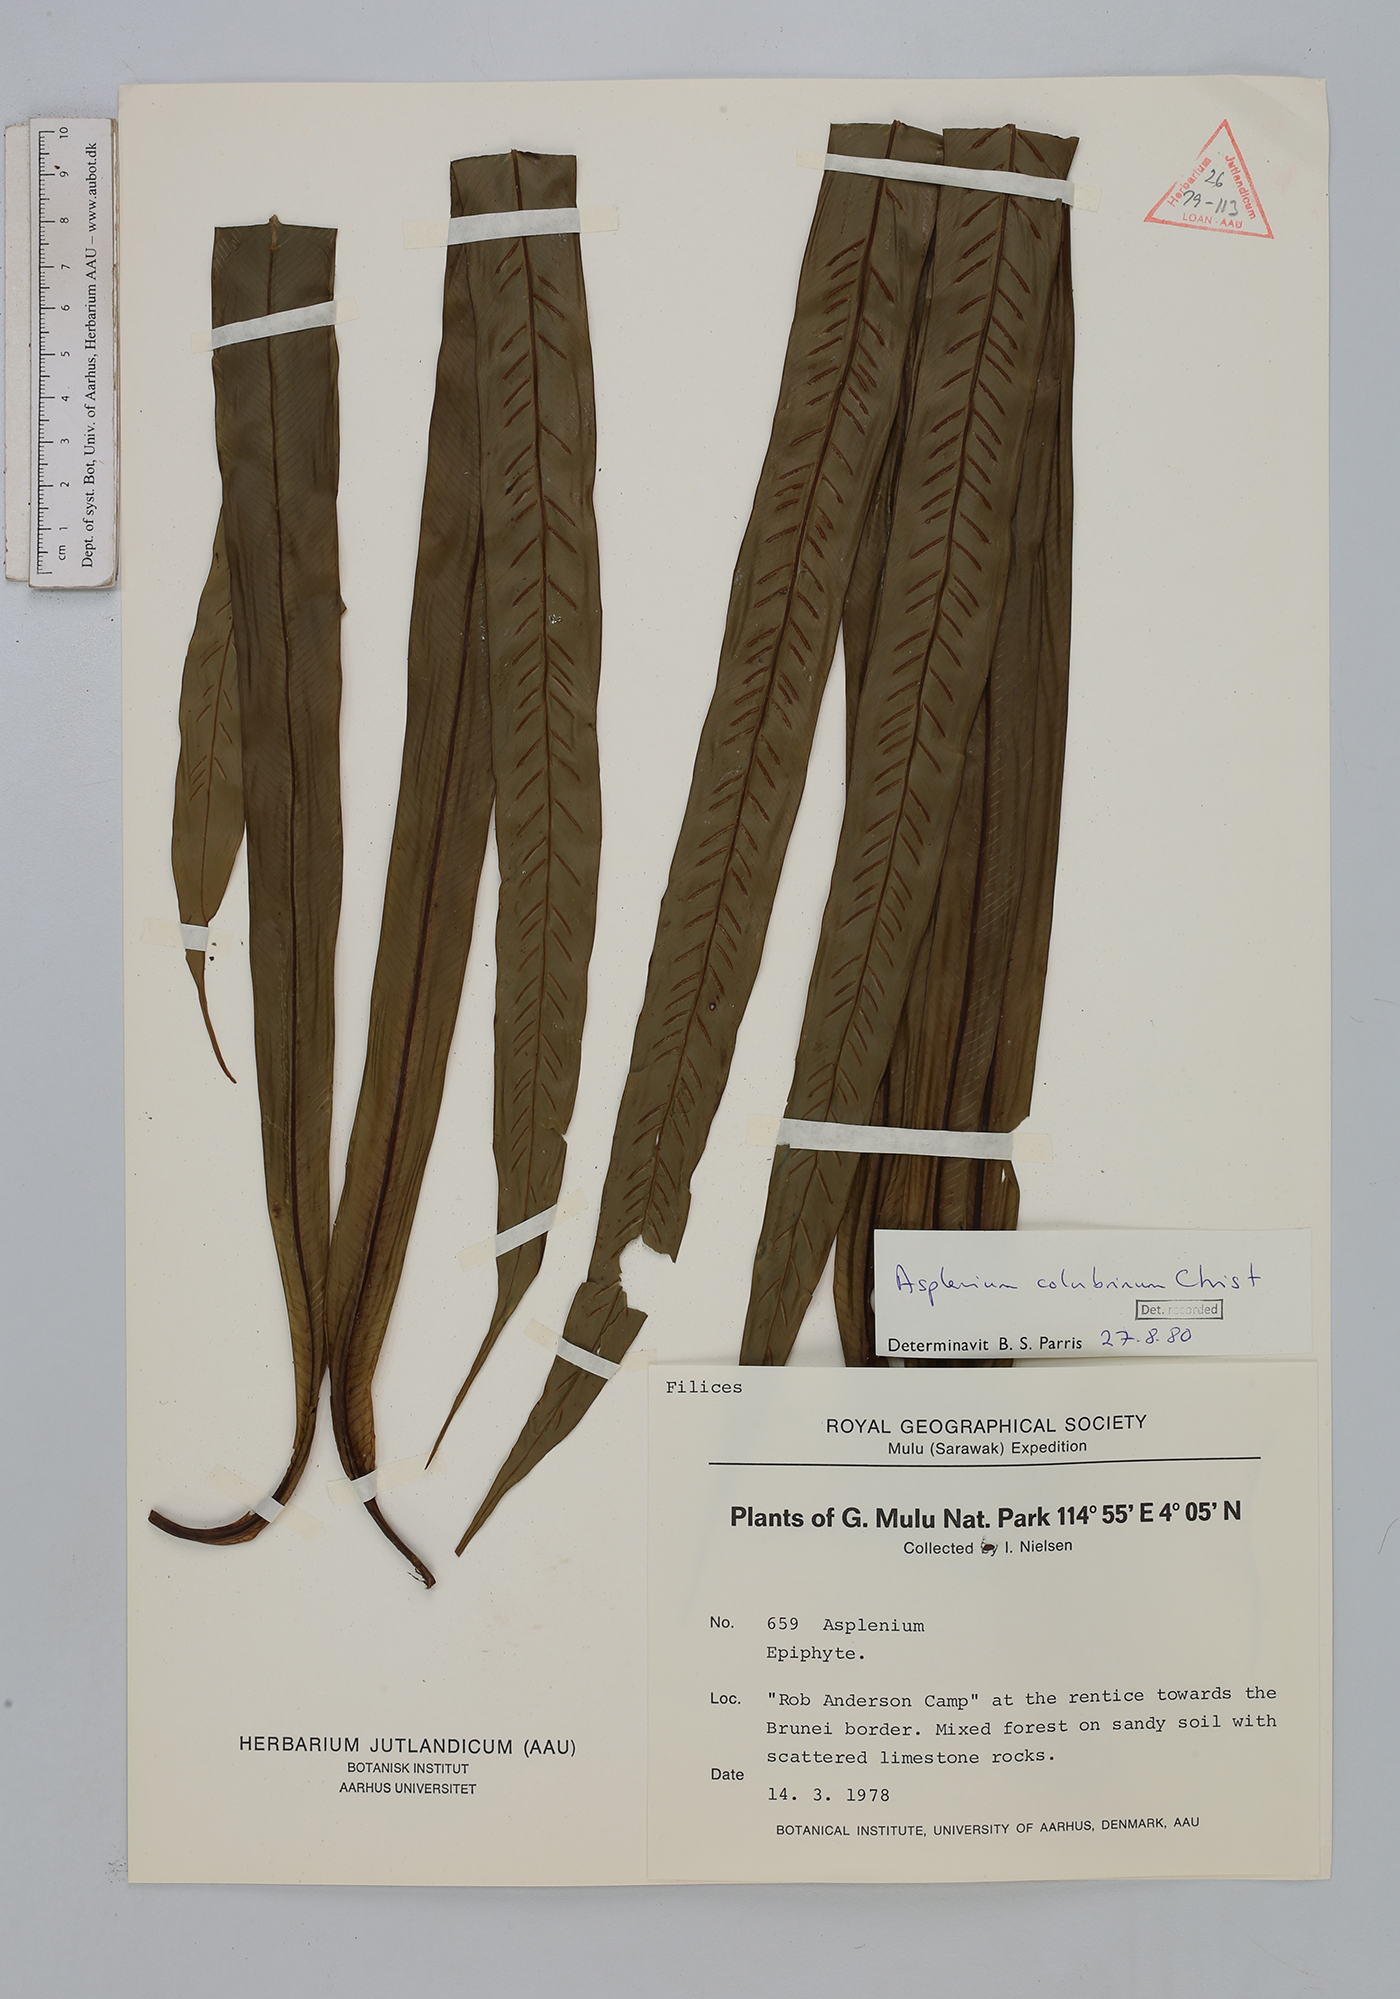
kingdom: Plantae
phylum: Tracheophyta
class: Polypodiopsida
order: Polypodiales
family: Aspleniaceae
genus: Asplenium
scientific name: Asplenium colubrinum
